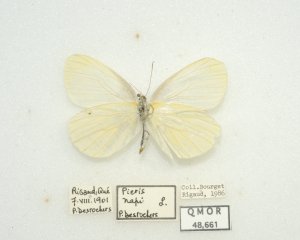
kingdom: Animalia
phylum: Arthropoda
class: Insecta
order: Lepidoptera
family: Pieridae
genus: Pieris
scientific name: Pieris oleracea
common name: Mustard White
